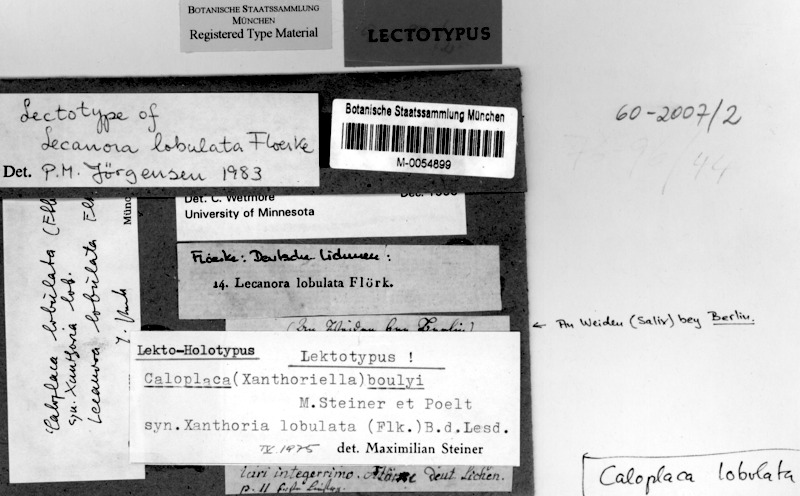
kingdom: Fungi
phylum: Ascomycota
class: Lecanoromycetes
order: Teloschistales
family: Teloschistaceae
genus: Seawardiella
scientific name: Seawardiella lobulata
